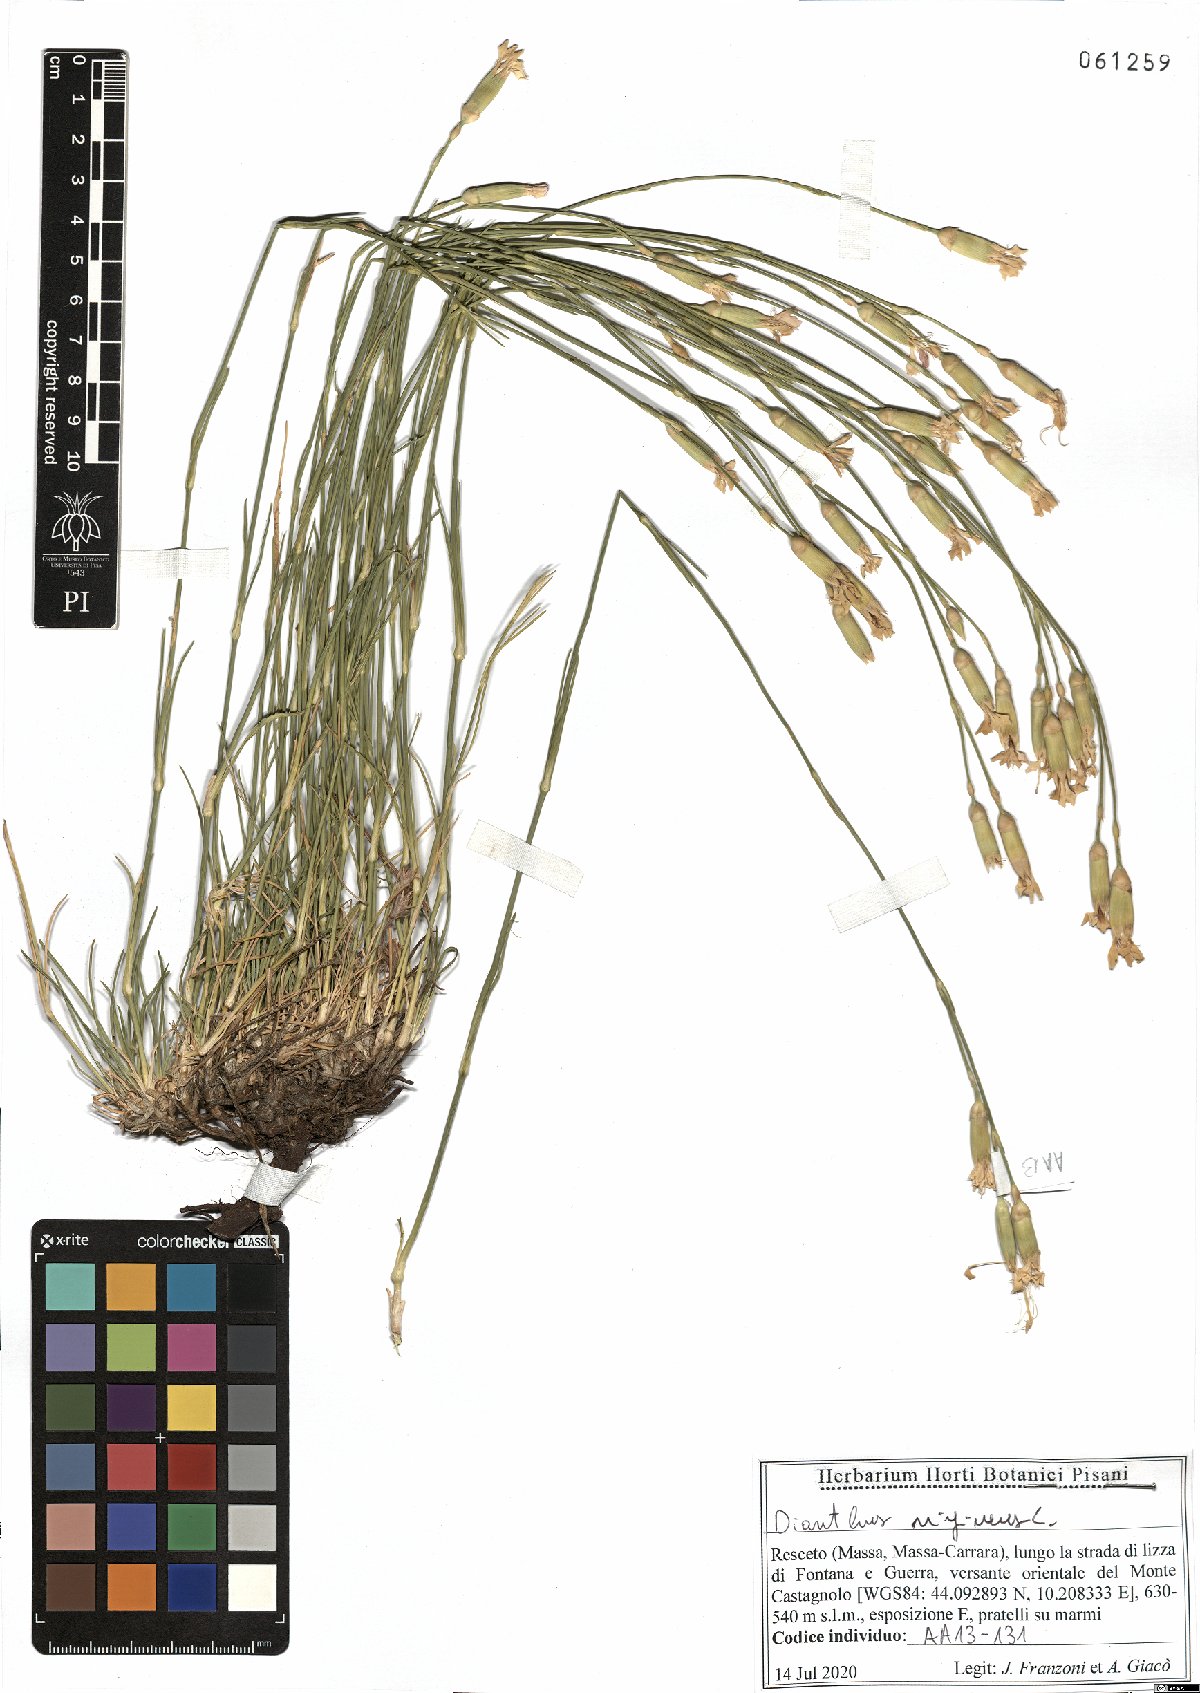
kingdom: Plantae
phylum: Tracheophyta
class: Magnoliopsida
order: Caryophyllales
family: Caryophyllaceae
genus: Dianthus
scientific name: Dianthus virgineus
